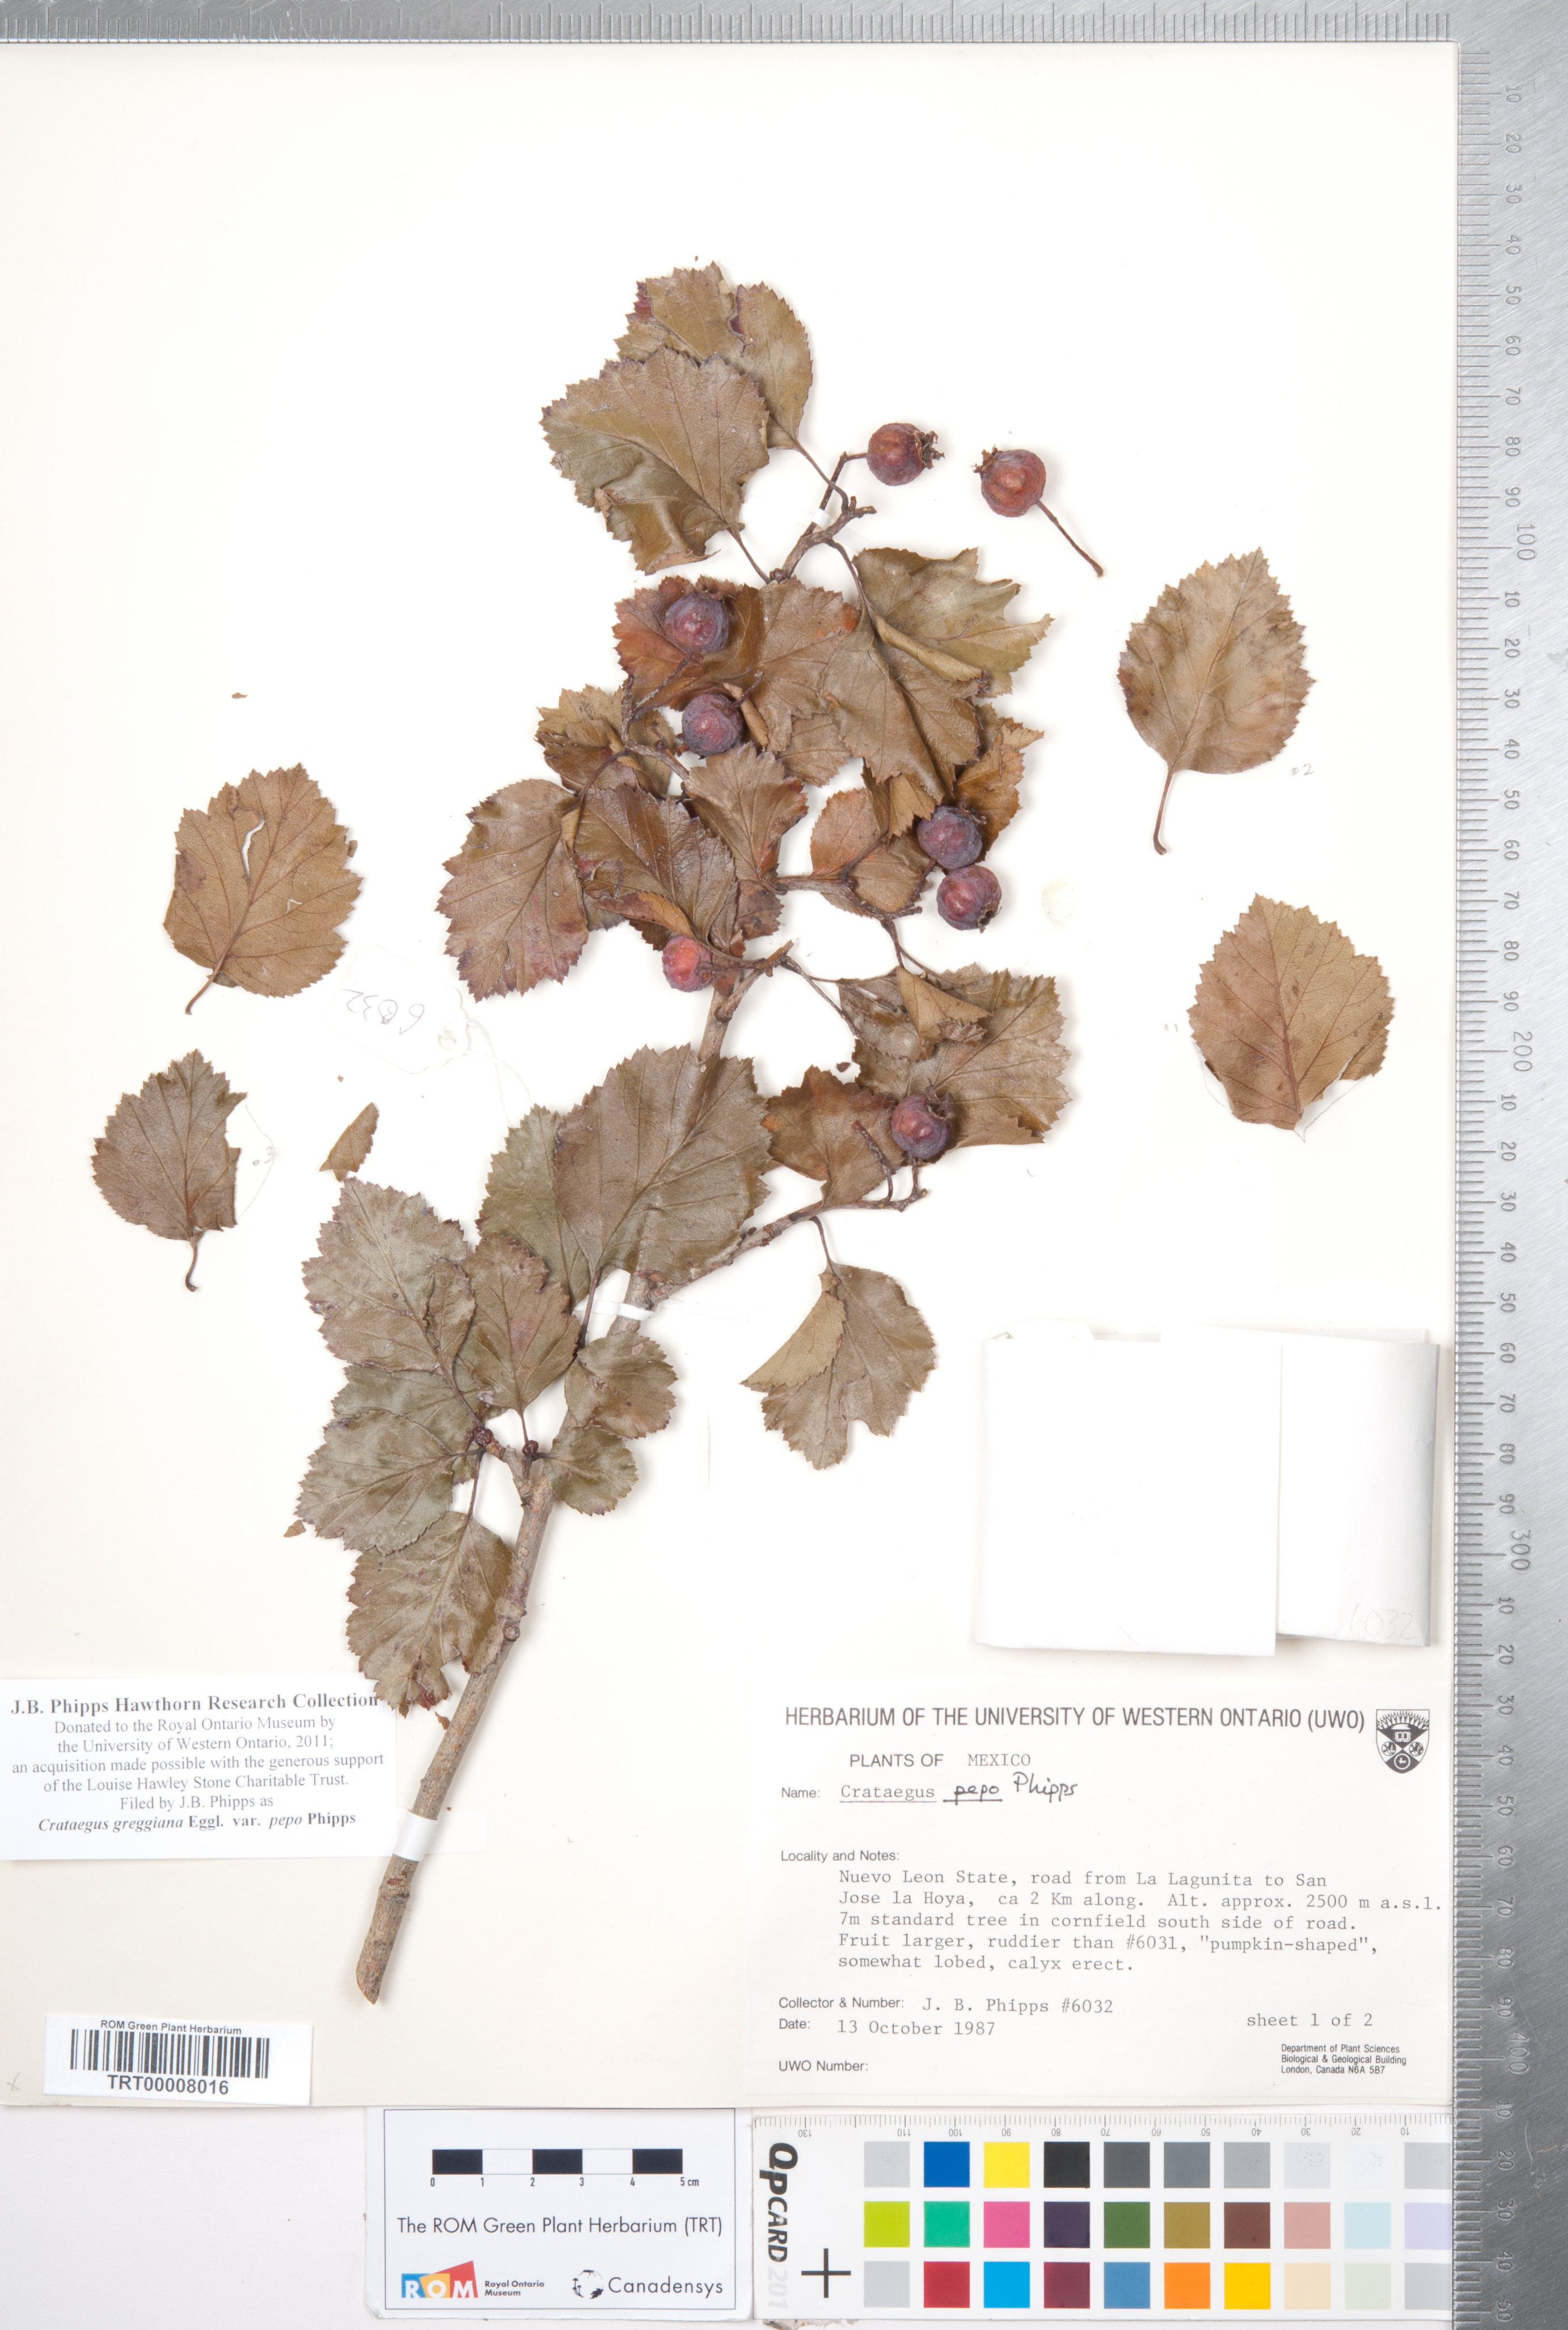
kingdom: Plantae
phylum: Tracheophyta
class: Magnoliopsida
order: Rosales
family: Rosaceae
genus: Crataegus
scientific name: Crataegus greggiana
